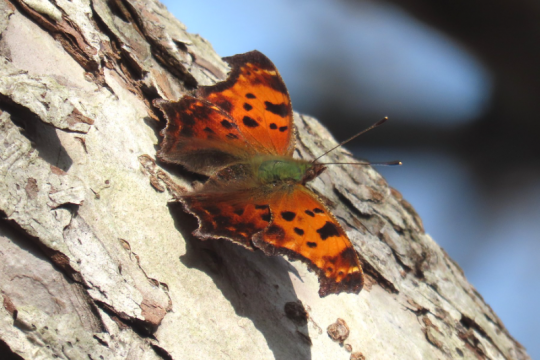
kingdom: Animalia
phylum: Arthropoda
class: Insecta
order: Lepidoptera
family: Nymphalidae
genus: Polygonia
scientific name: Polygonia comma
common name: Eastern Comma
